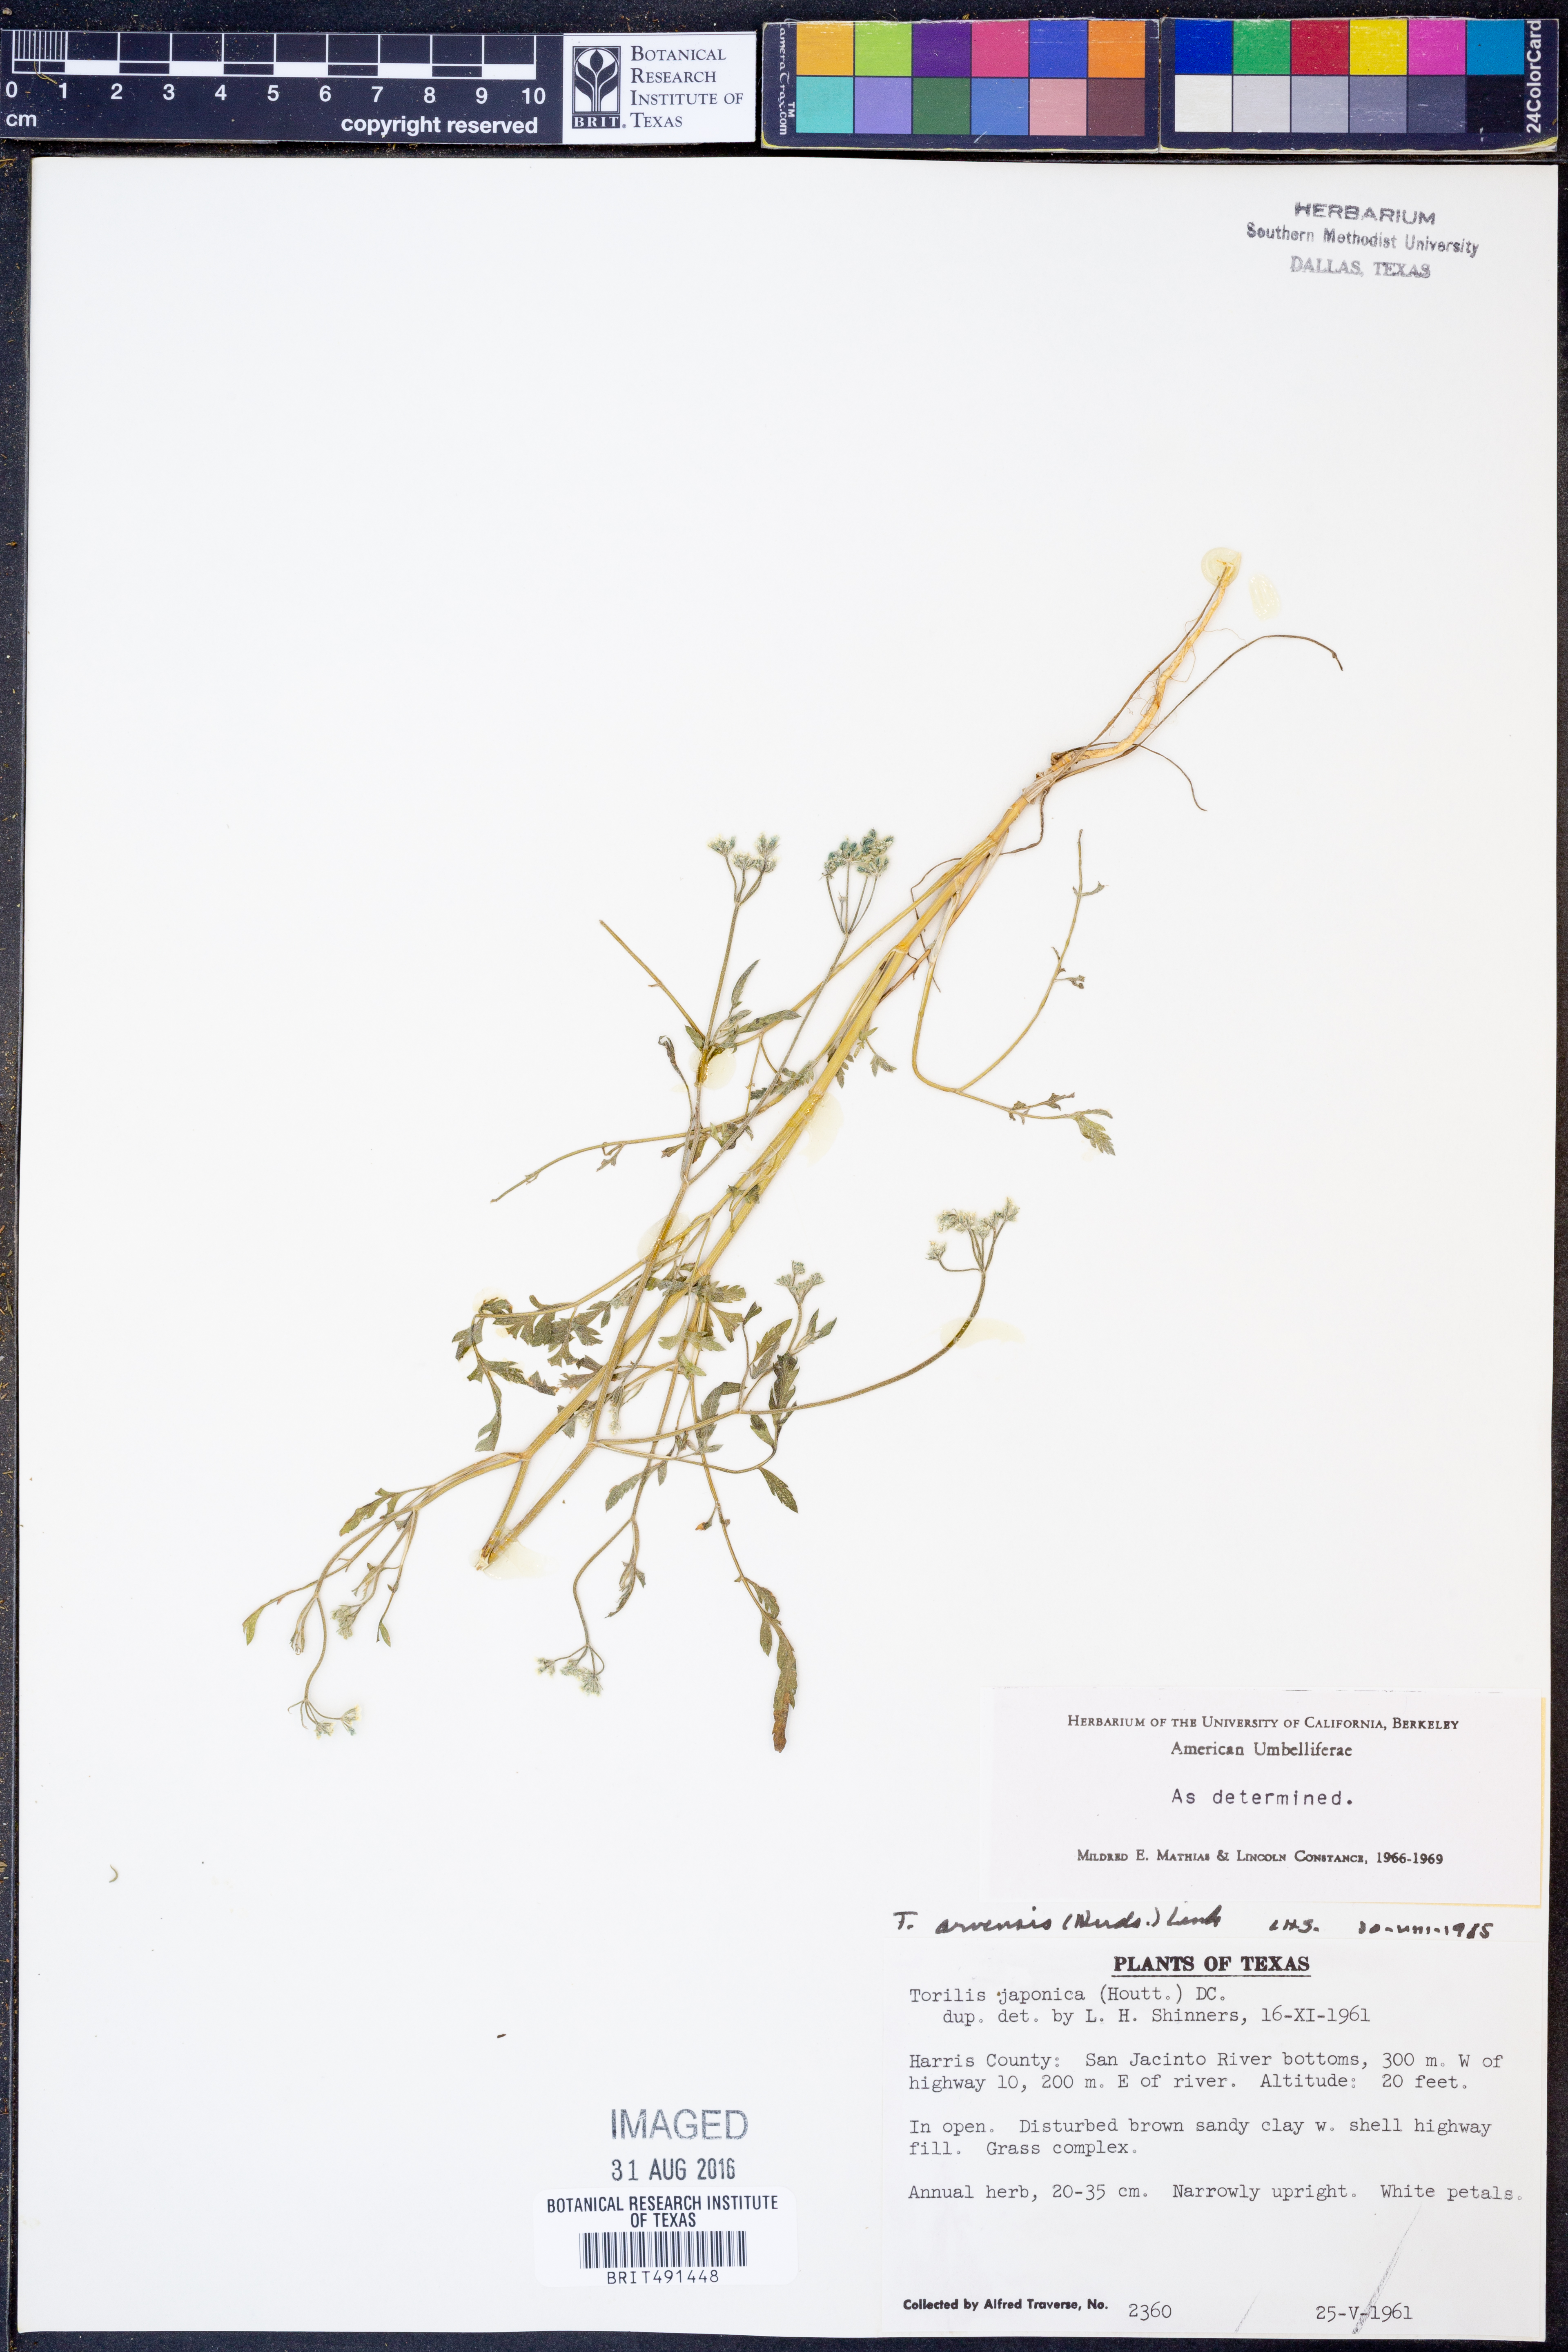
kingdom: Plantae
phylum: Tracheophyta
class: Magnoliopsida
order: Apiales
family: Apiaceae
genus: Torilis
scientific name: Torilis arvensis
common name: Spreading hedge-parsley
